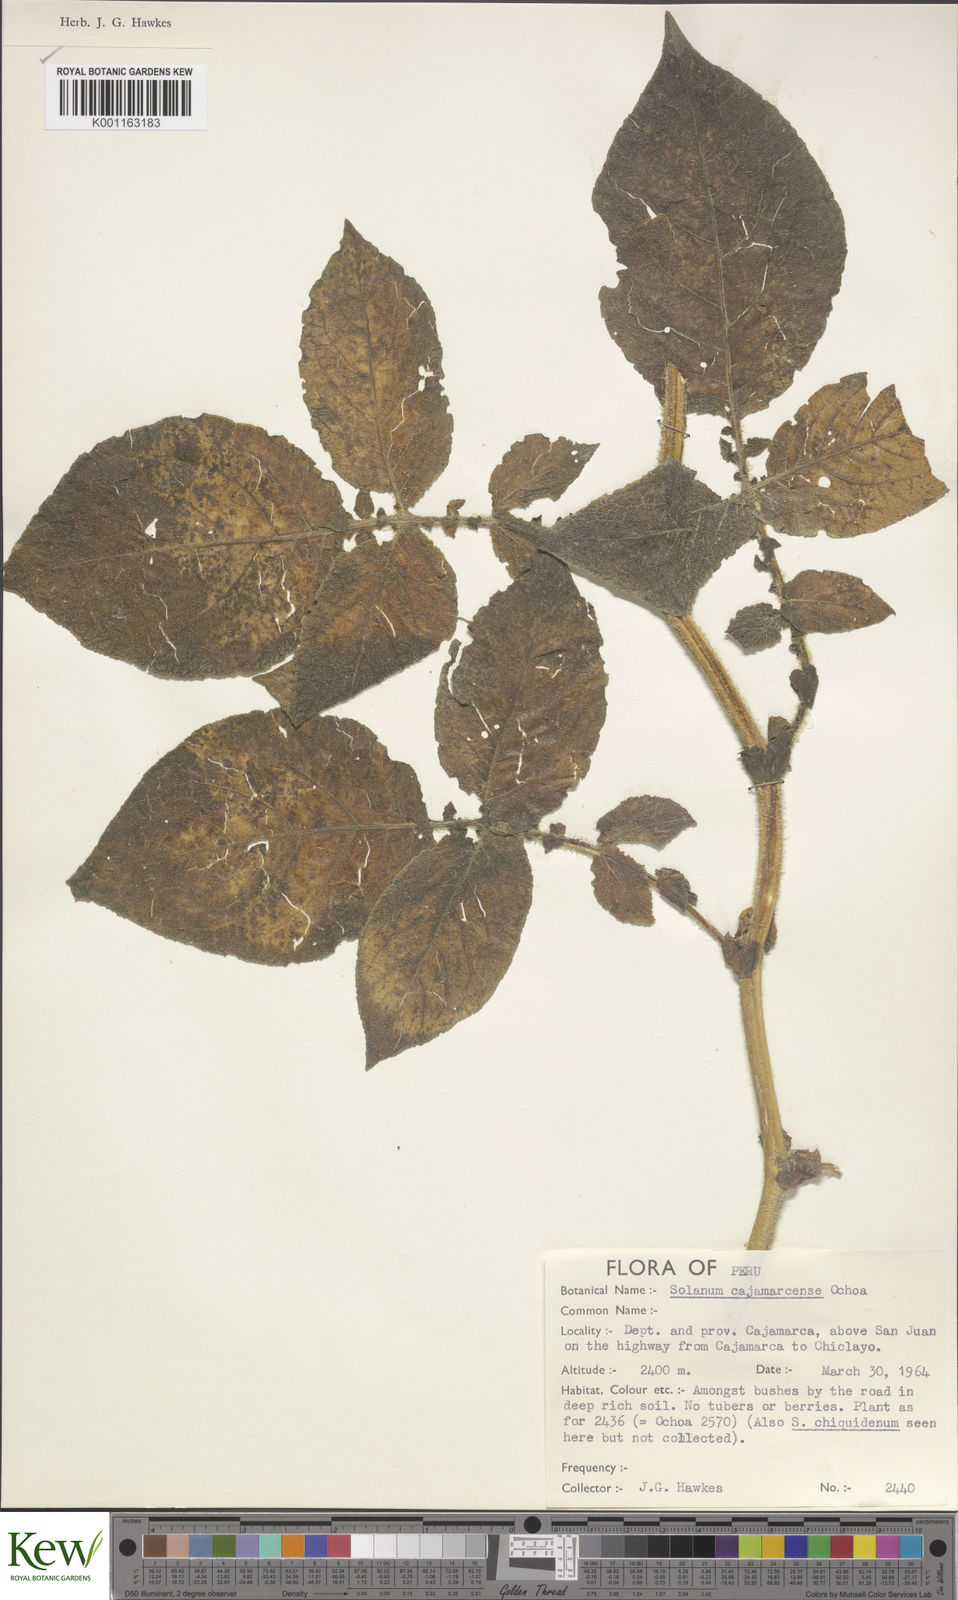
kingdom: Plantae
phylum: Tracheophyta
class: Magnoliopsida
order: Solanales
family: Solanaceae
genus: Solanum
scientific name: Solanum cajamarquense
